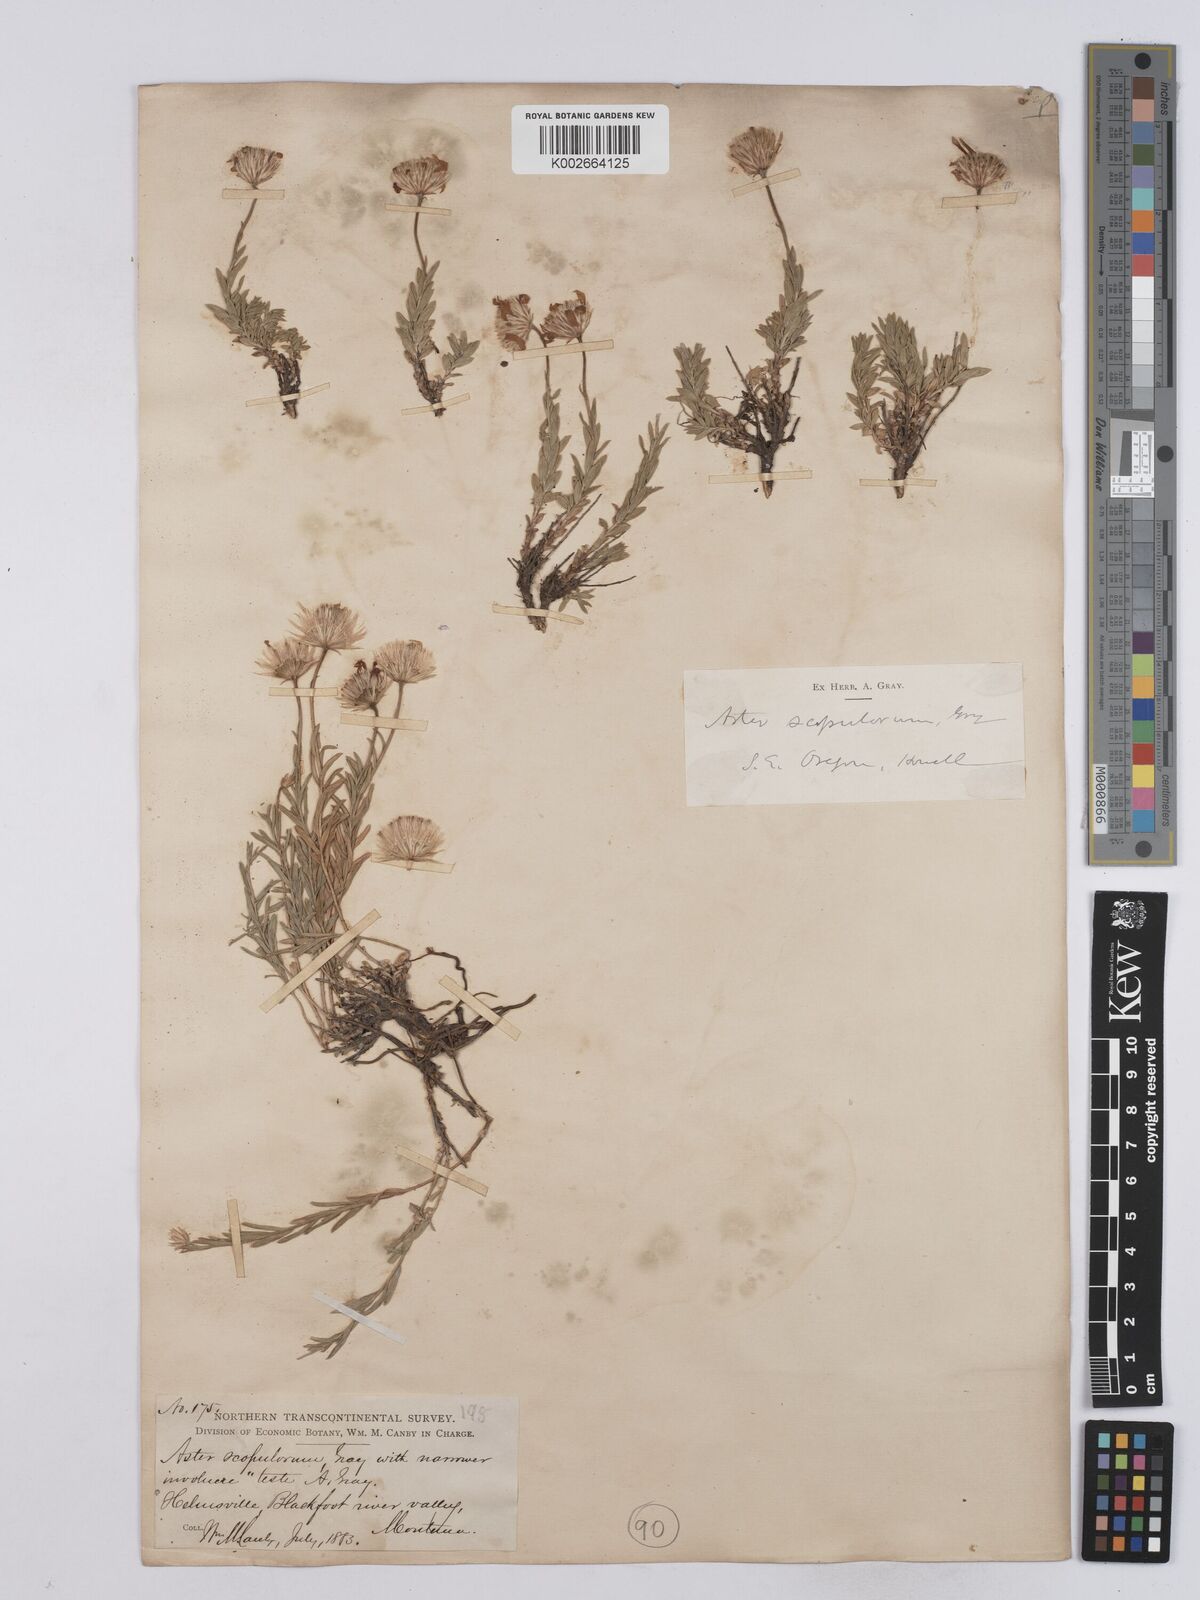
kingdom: Plantae
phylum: Tracheophyta
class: Magnoliopsida
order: Asterales
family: Asteraceae
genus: Ionactis
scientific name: Ionactis alpina
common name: Crag aster
